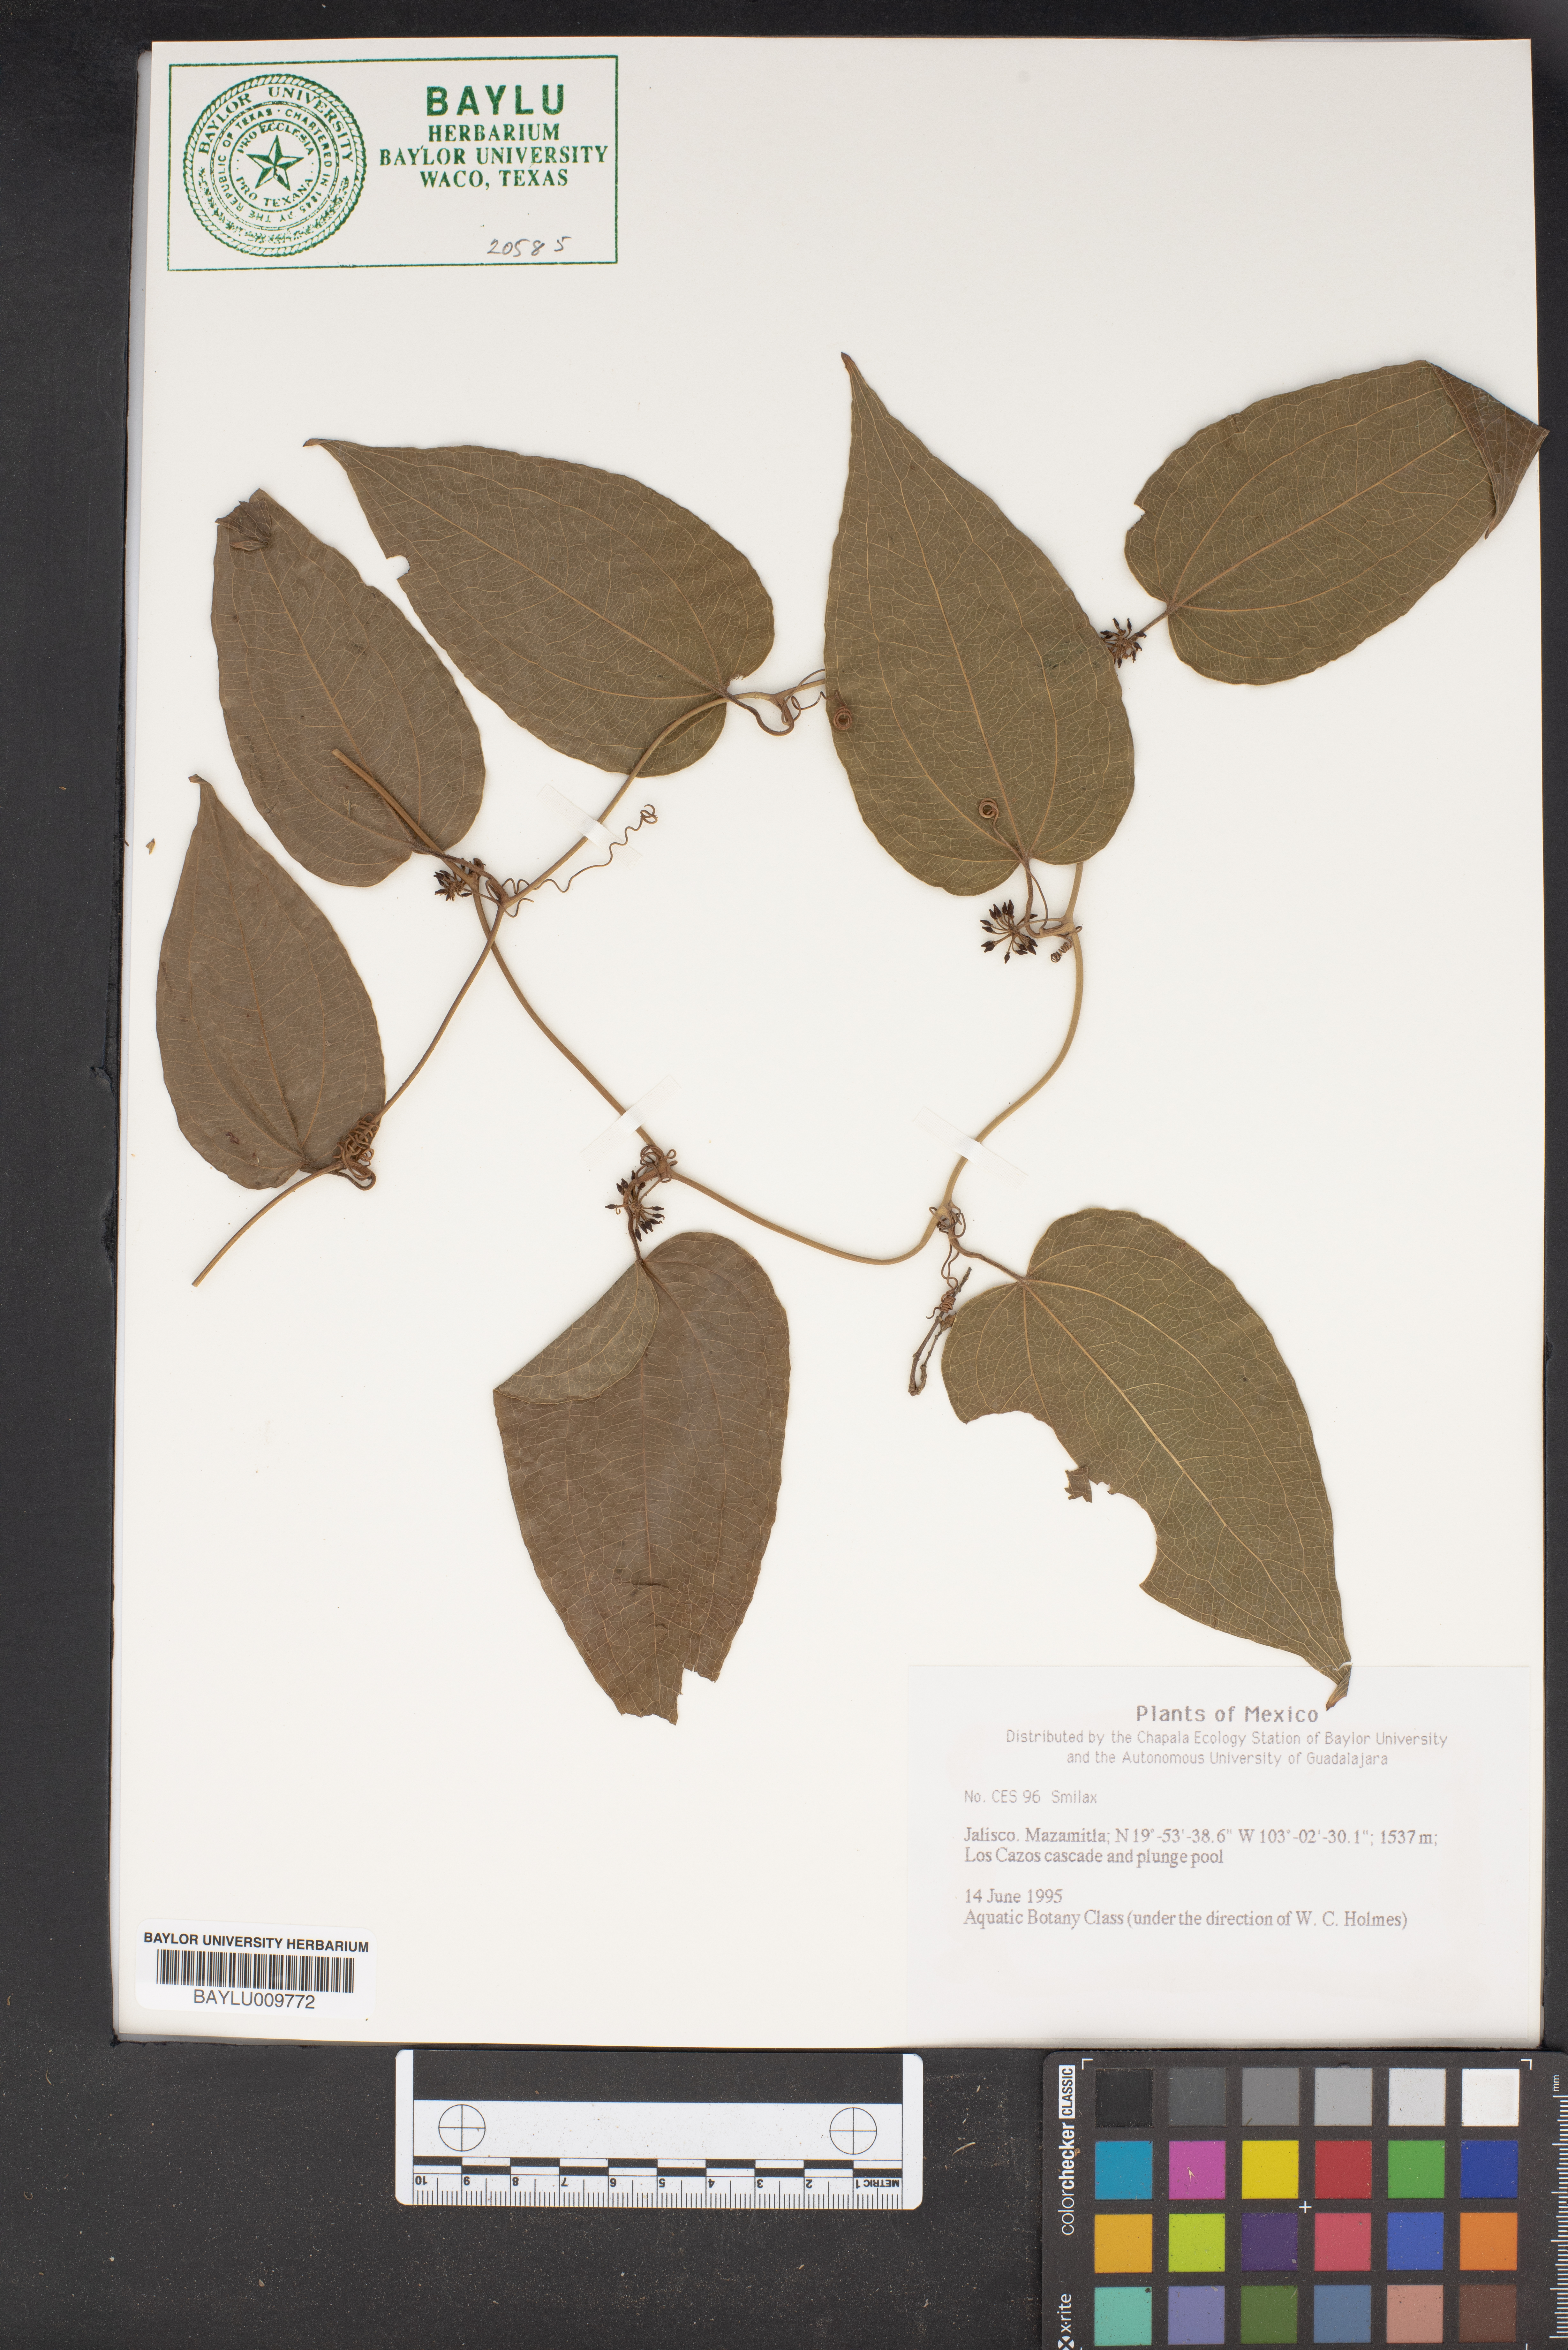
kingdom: Plantae
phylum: Tracheophyta
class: Liliopsida
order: Liliales
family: Smilacaceae
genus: Smilax
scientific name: Smilax
